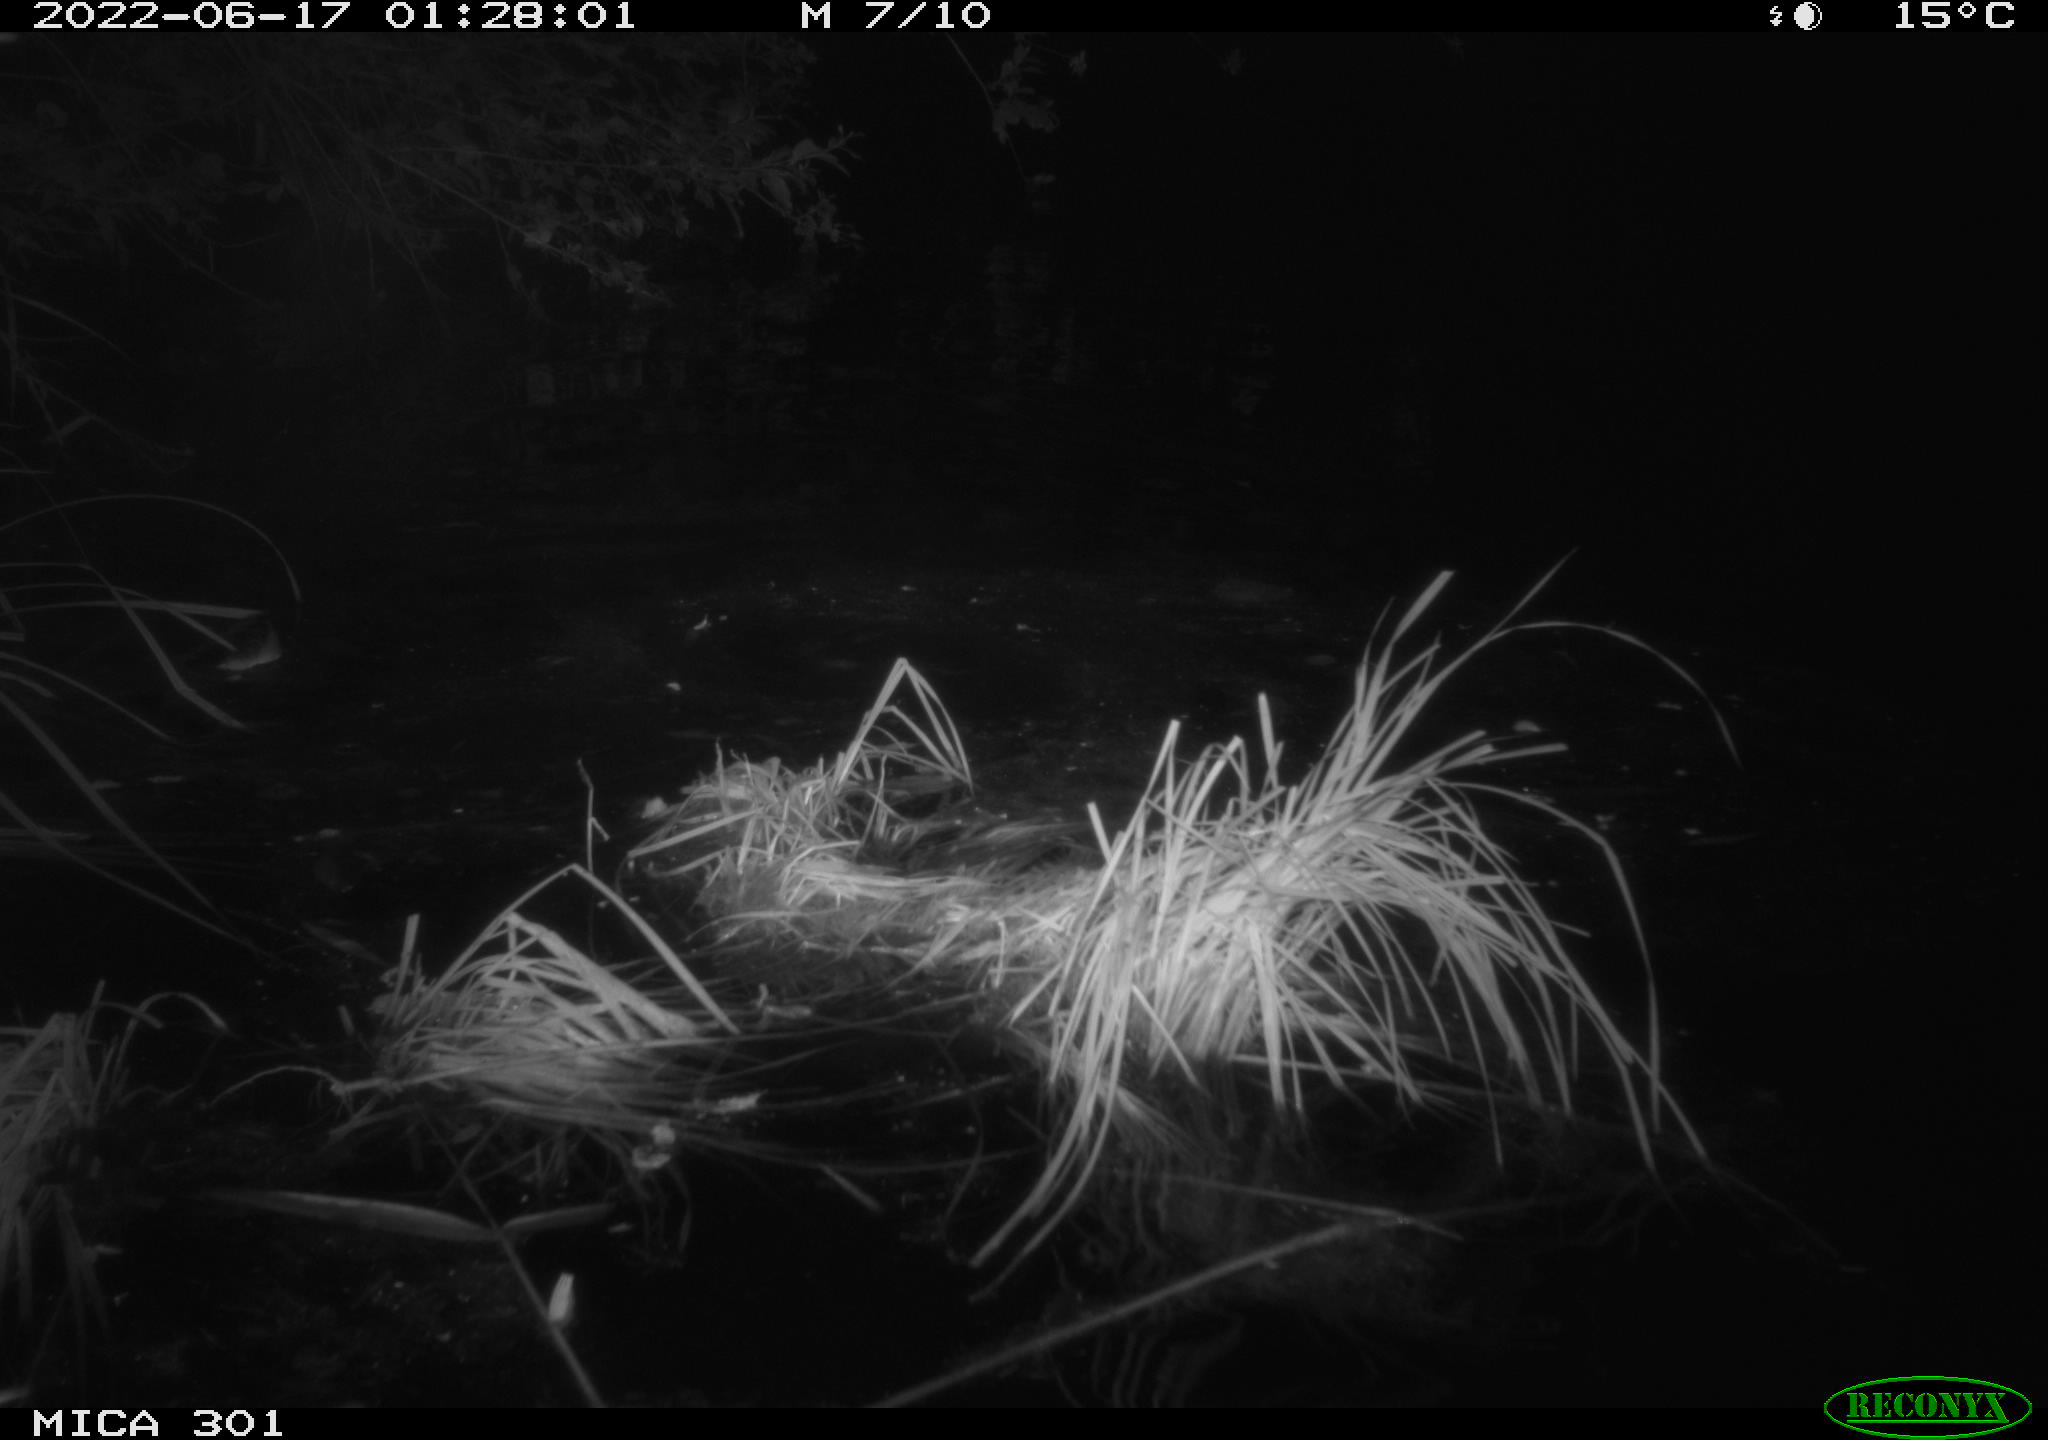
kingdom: Animalia
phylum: Chordata
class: Mammalia
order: Rodentia
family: Castoridae
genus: Castor
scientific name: Castor fiber
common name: Eurasian beaver
